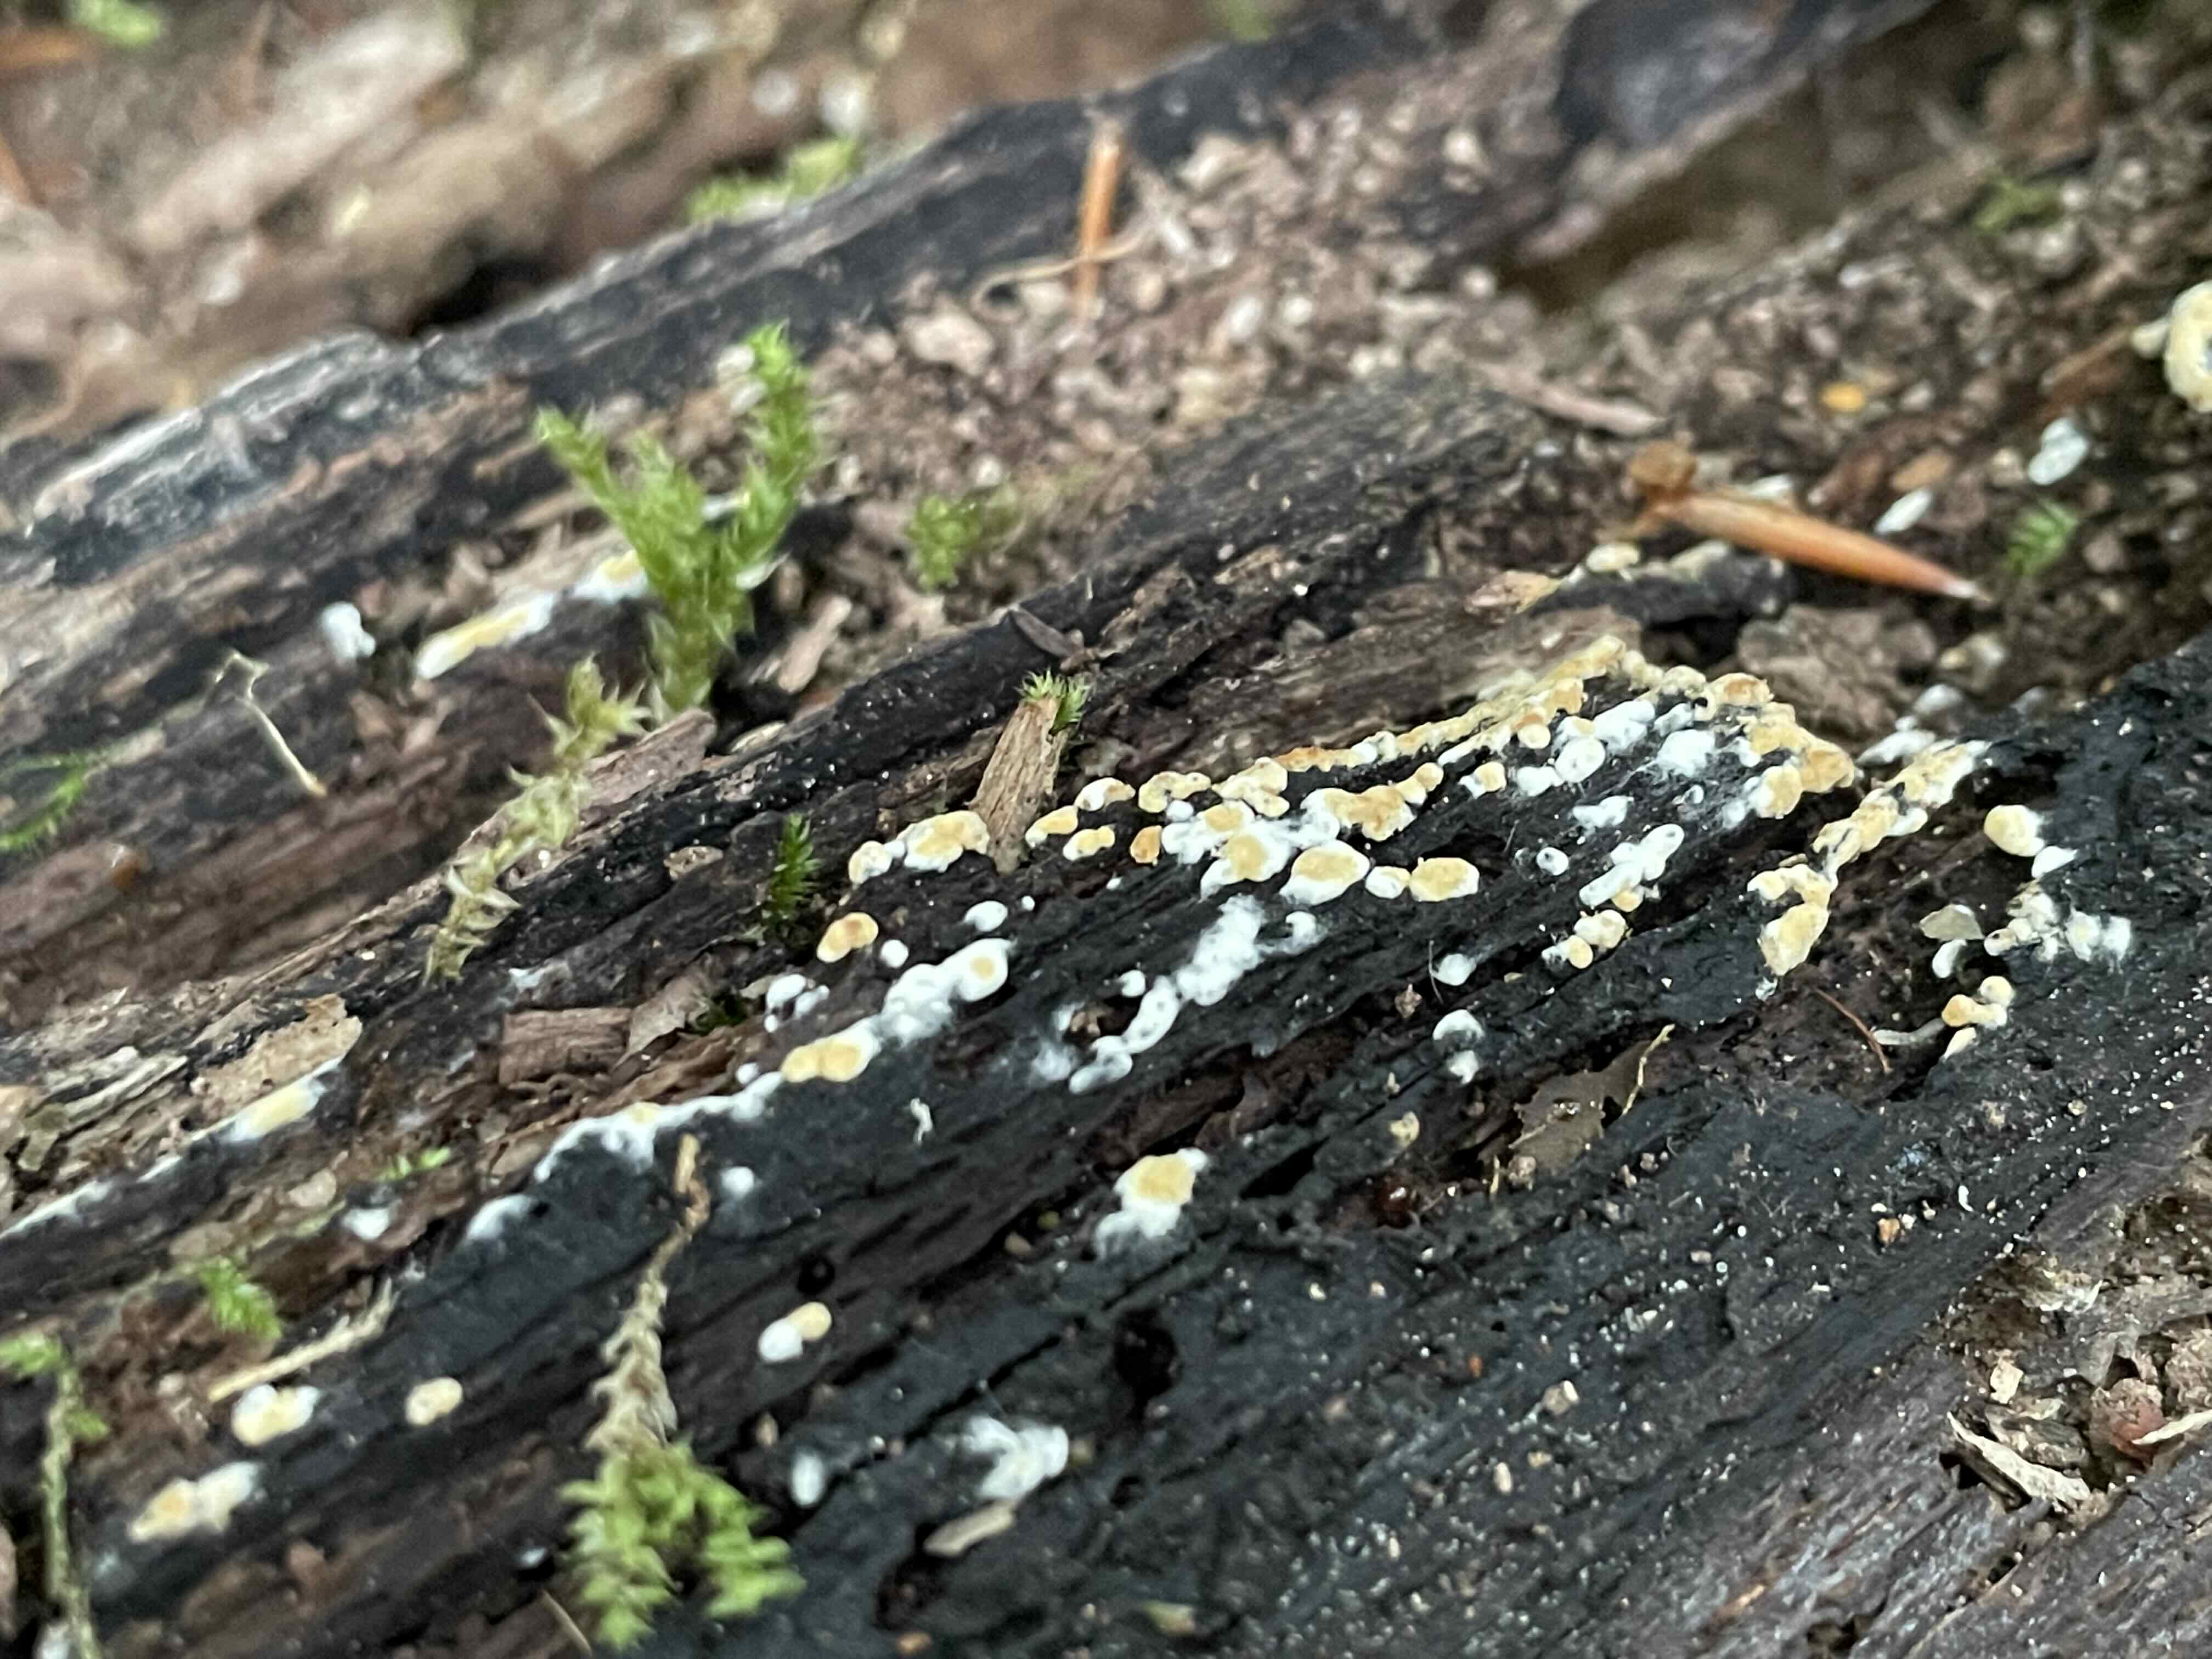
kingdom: Fungi
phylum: Basidiomycota
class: Agaricomycetes
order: Cantharellales
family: Botryobasidiaceae
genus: Botryobasidium
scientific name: Botryobasidium aureum
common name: gylden spindhinde
